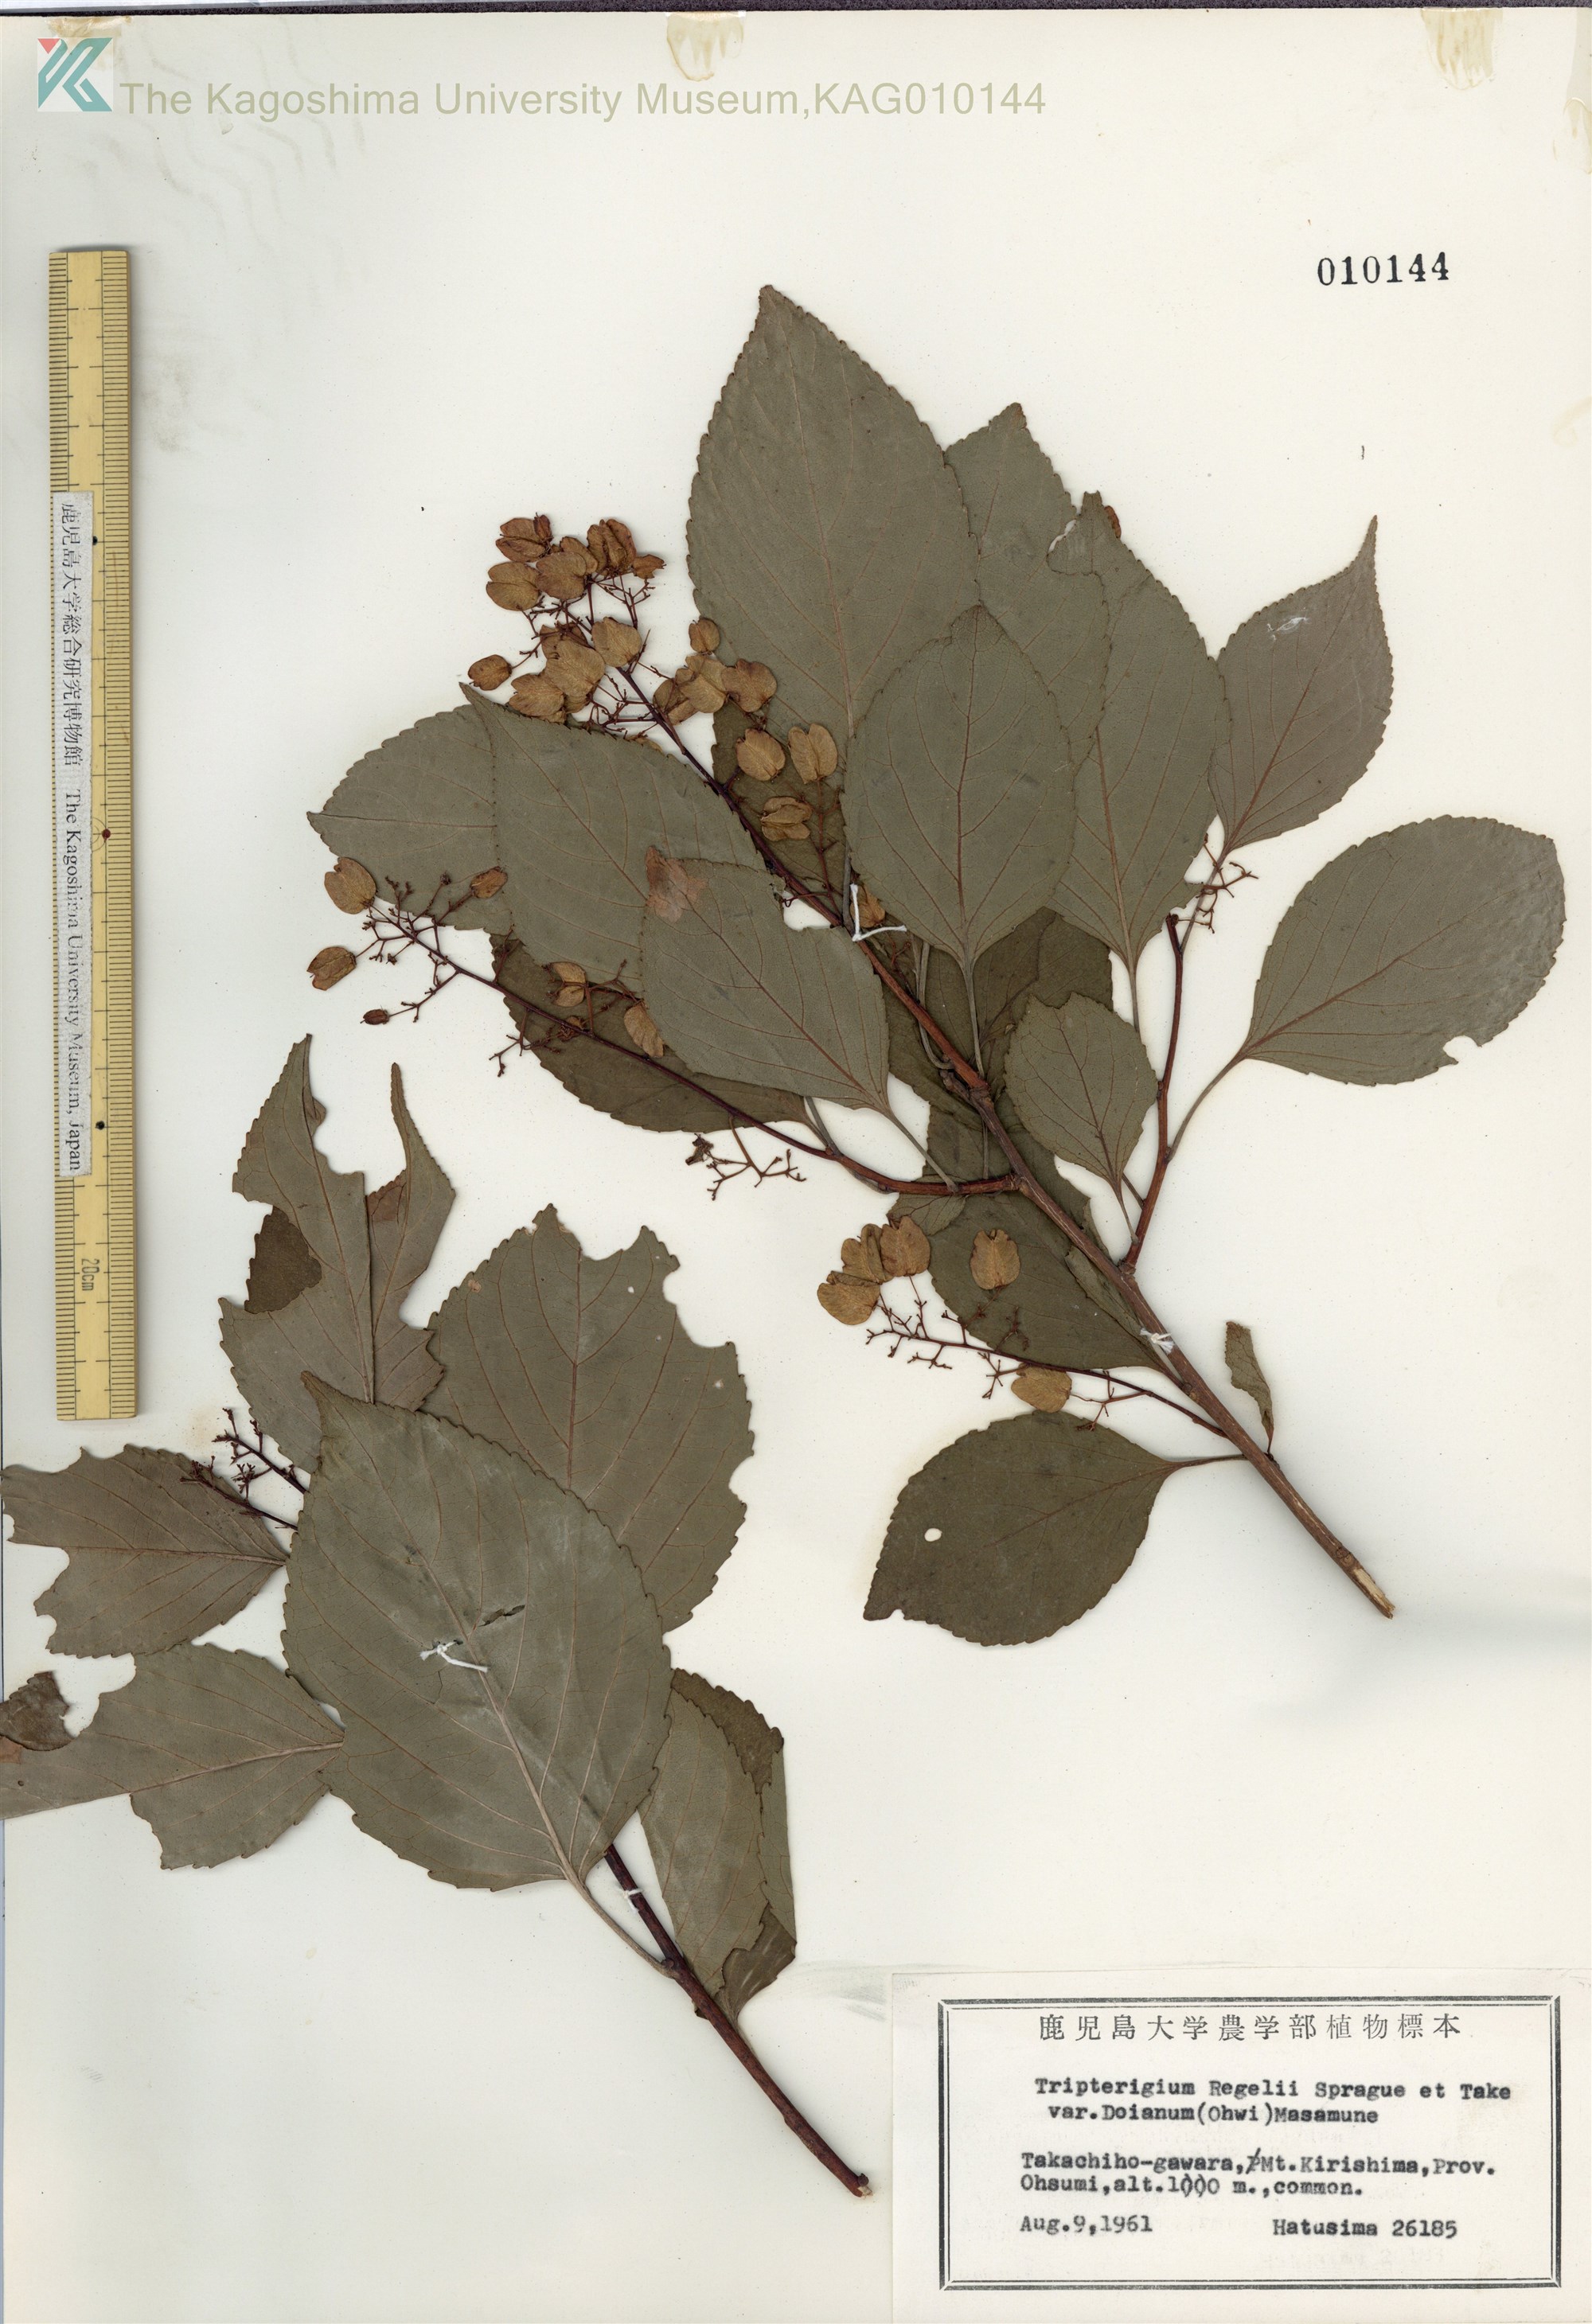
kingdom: Plantae
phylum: Tracheophyta
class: Magnoliopsida
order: Celastrales
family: Celastraceae
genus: Tripterygium
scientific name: Tripterygium doianum
